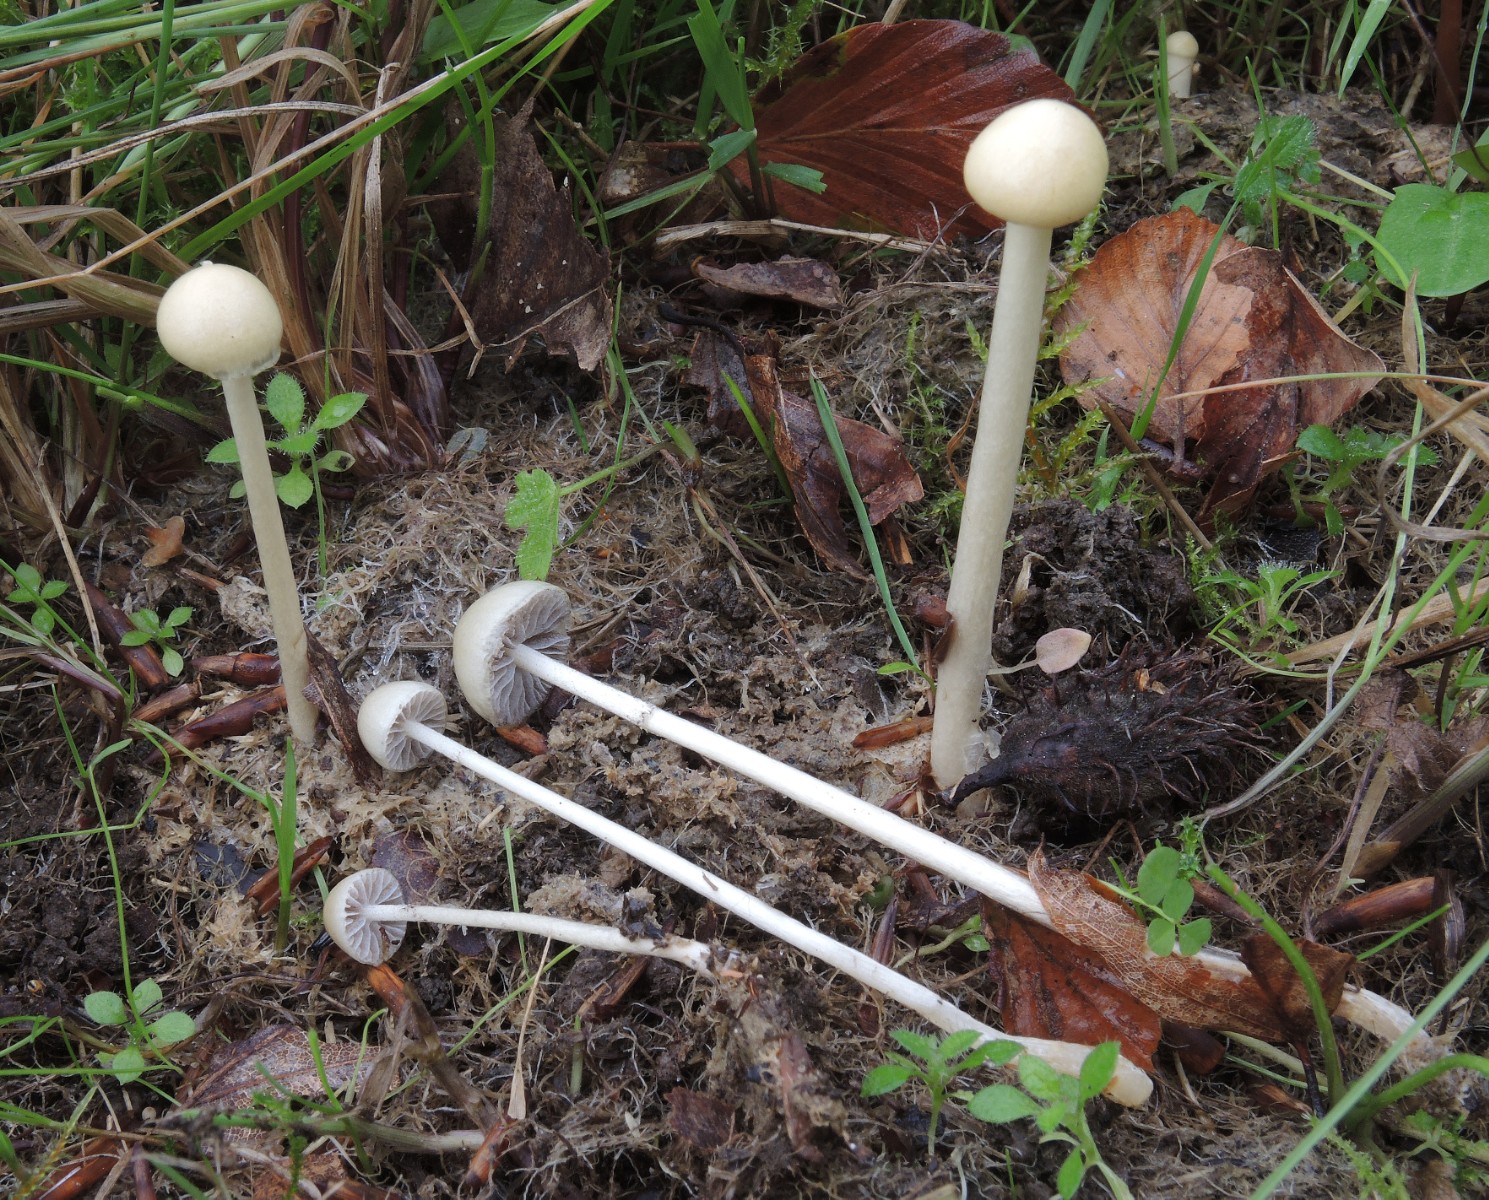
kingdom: Fungi
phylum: Basidiomycota
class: Agaricomycetes
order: Agaricales
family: Strophariaceae
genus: Protostropharia
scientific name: Protostropharia semiglobata
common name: halvkugleformet bredblad
